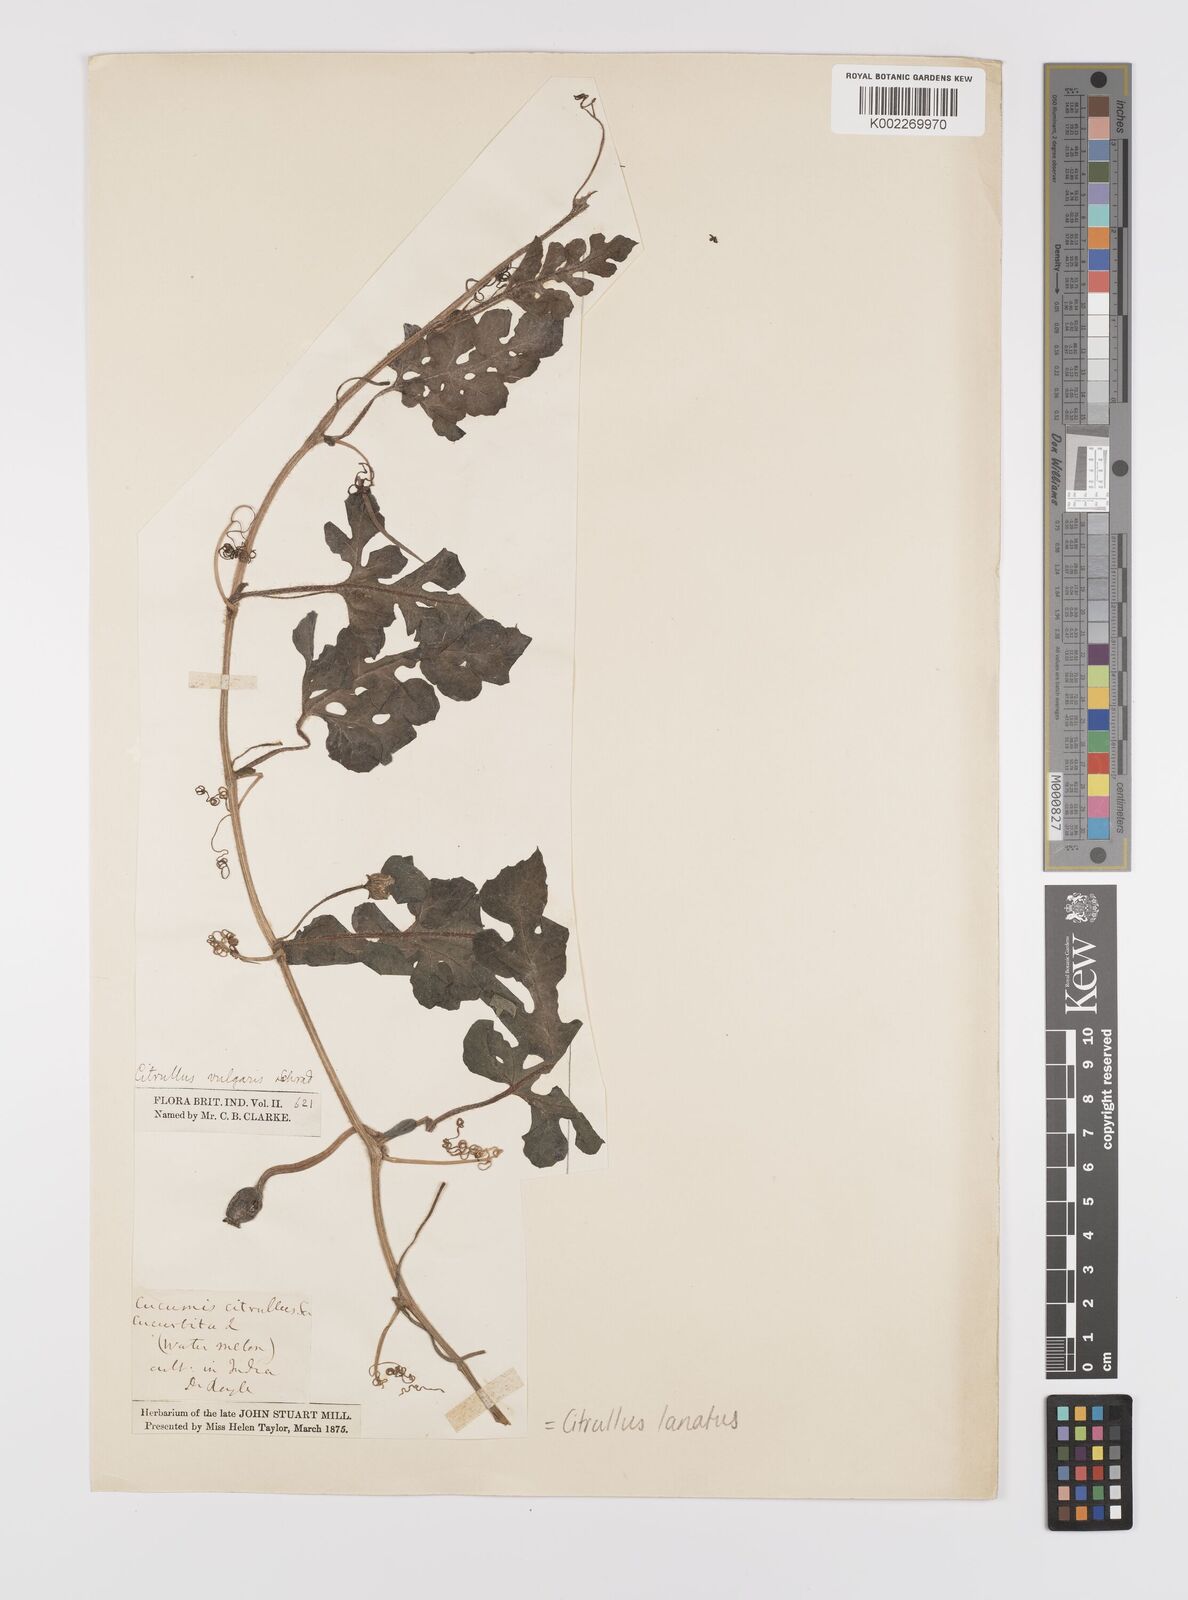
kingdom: Plantae
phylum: Tracheophyta
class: Magnoliopsida
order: Cucurbitales
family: Cucurbitaceae
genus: Citrullus
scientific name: Citrullus lanatus
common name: Watermelon
